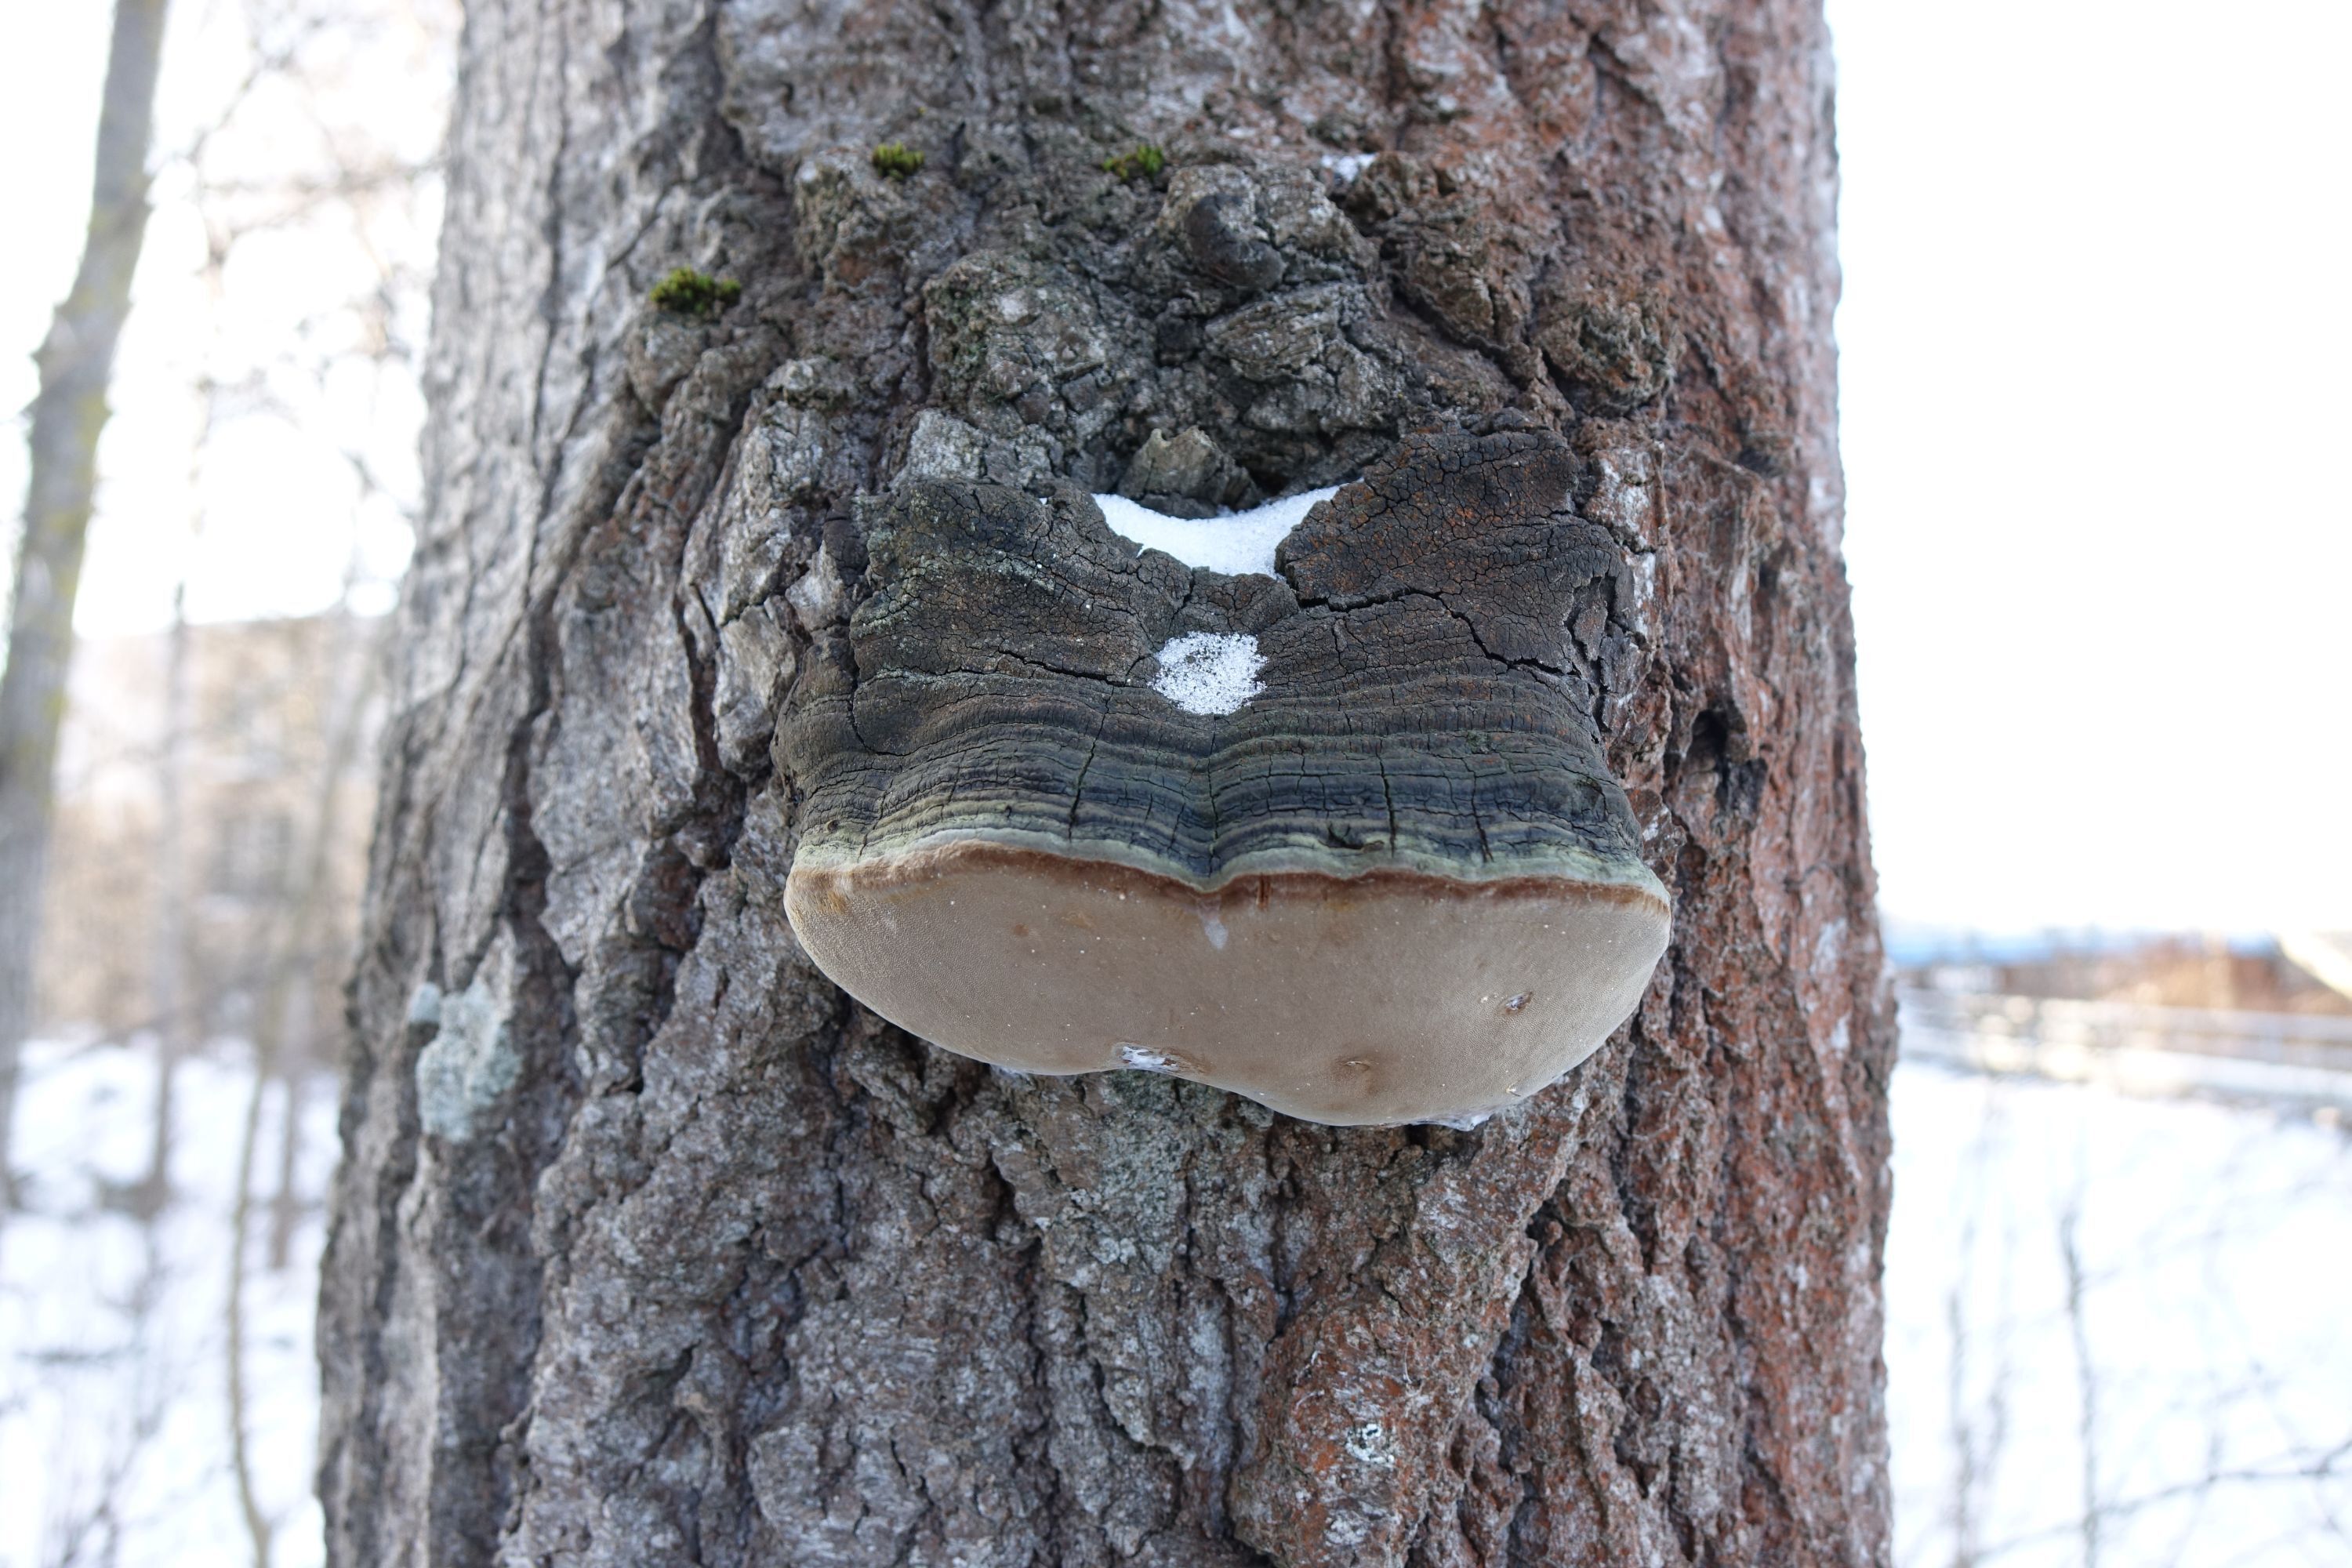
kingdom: Fungi
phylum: Basidiomycota
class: Agaricomycetes
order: Hymenochaetales
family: Hymenochaetaceae
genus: Phellinus
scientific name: Phellinus tremulae
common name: Aspen bracket
